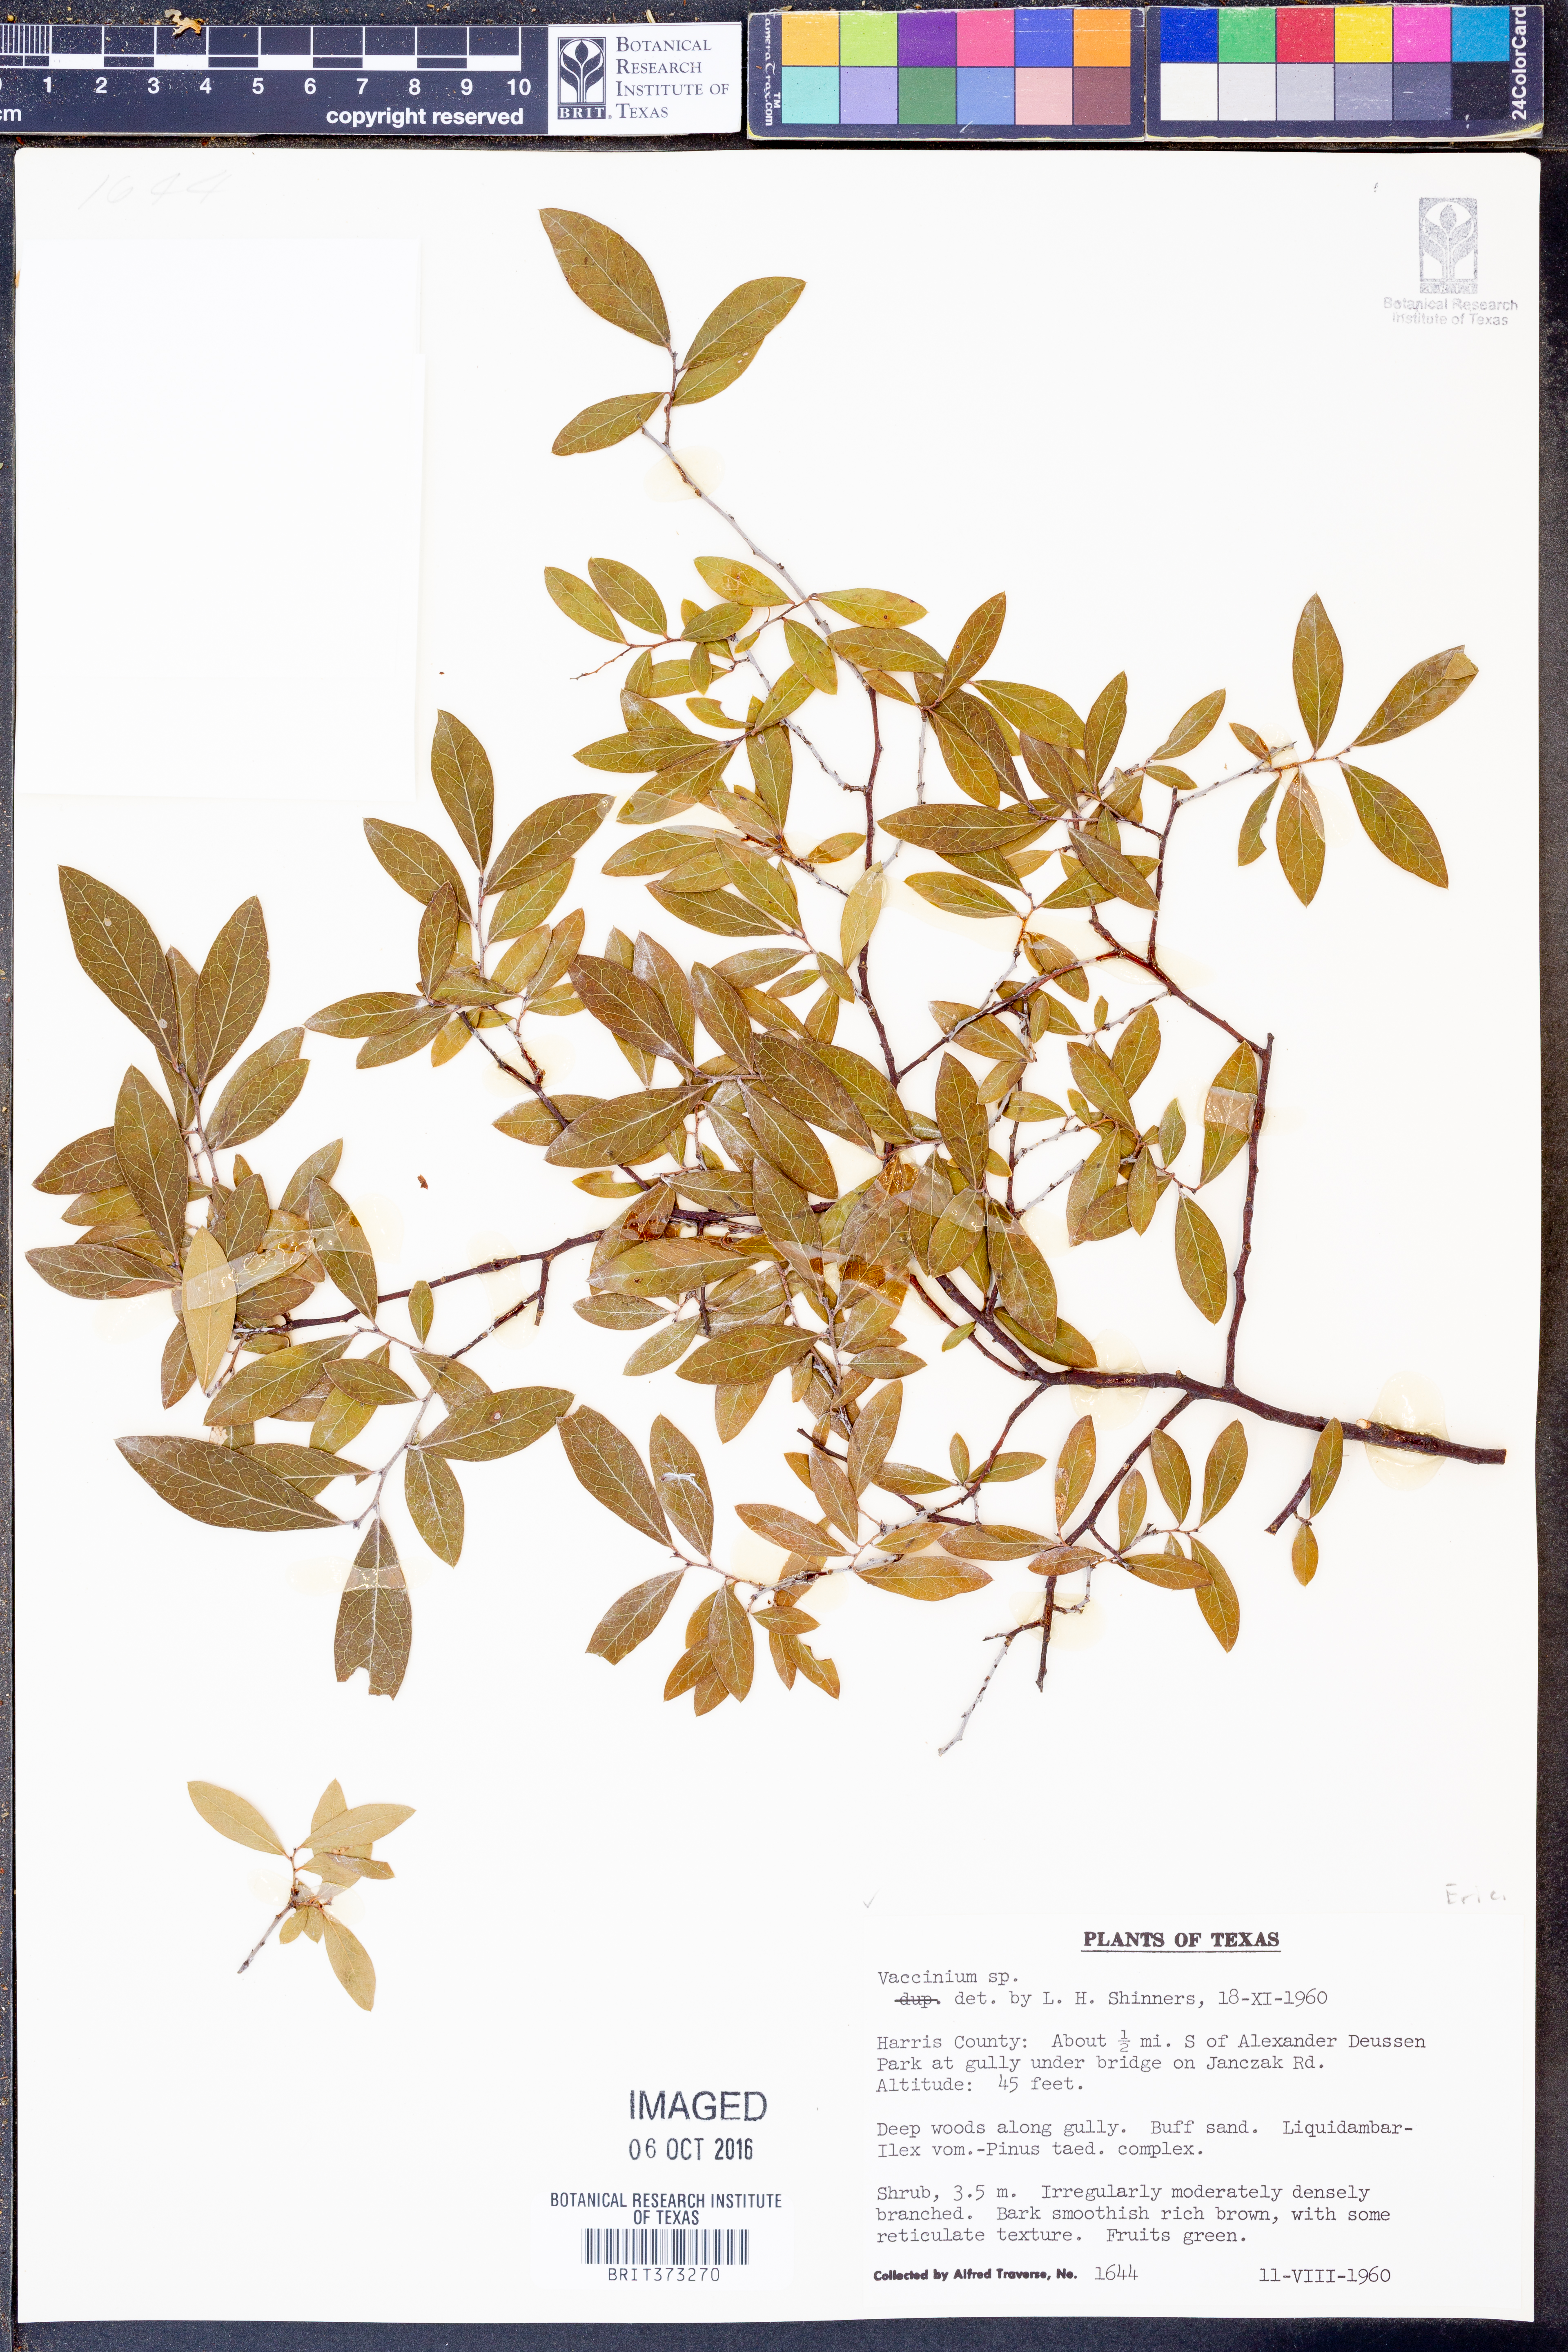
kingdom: Plantae
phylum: Tracheophyta
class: Magnoliopsida
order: Ericales
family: Ericaceae
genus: Vaccinium
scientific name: Vaccinium
